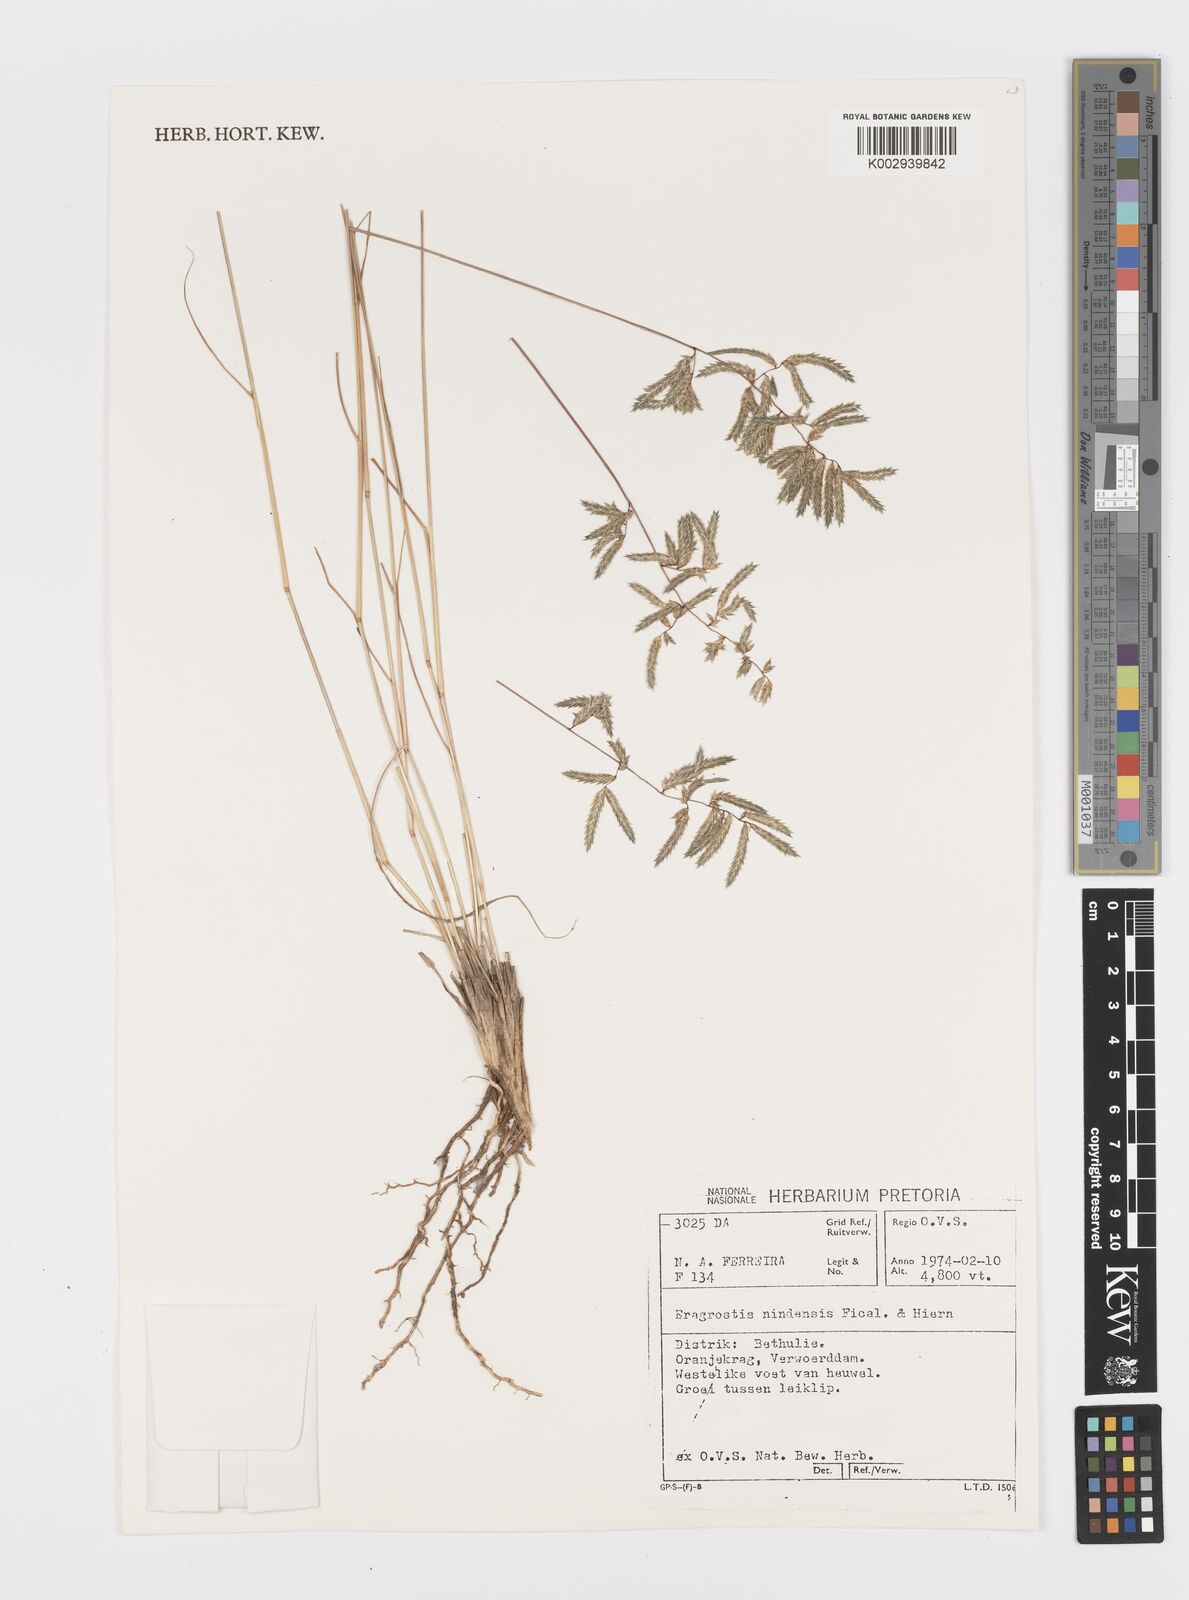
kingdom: Plantae
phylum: Tracheophyta
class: Liliopsida
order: Poales
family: Poaceae
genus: Eragrostis
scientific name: Eragrostis nindensis
